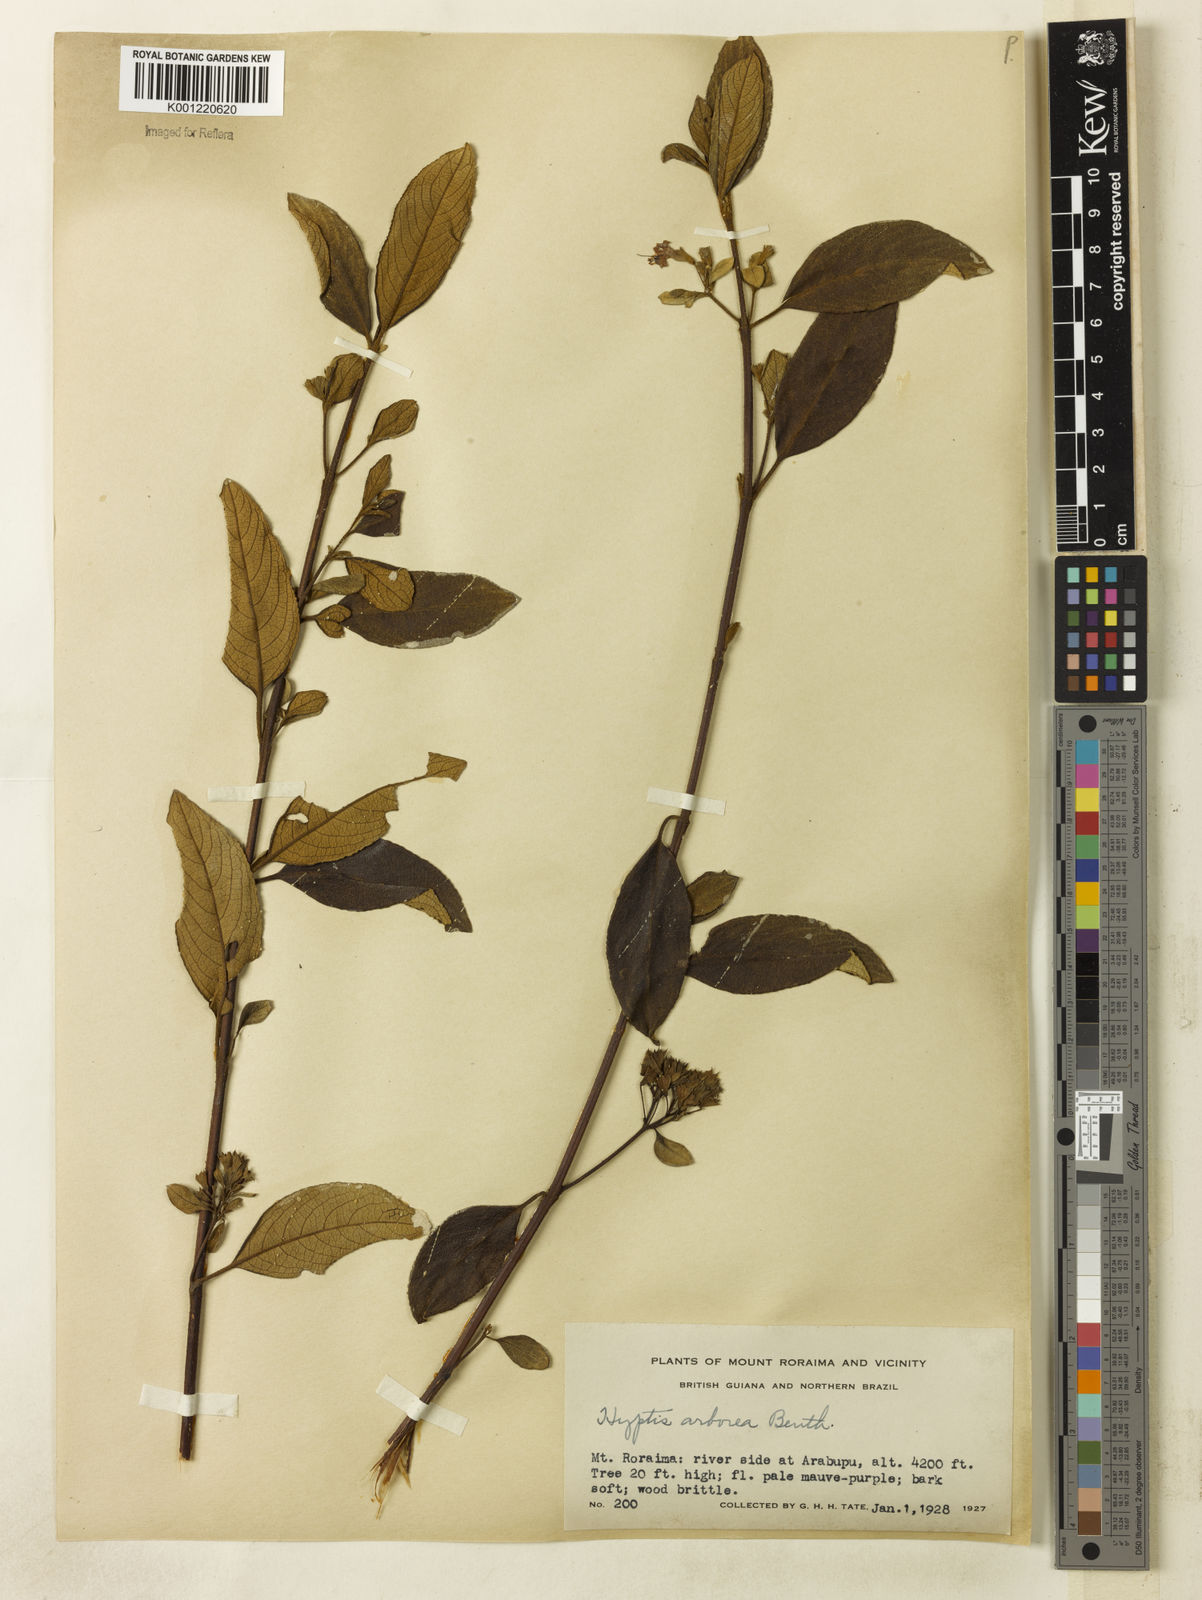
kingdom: Plantae
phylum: Tracheophyta
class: Magnoliopsida
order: Lamiales
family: Lamiaceae
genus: Hyptidendron
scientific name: Hyptidendron arboreum
